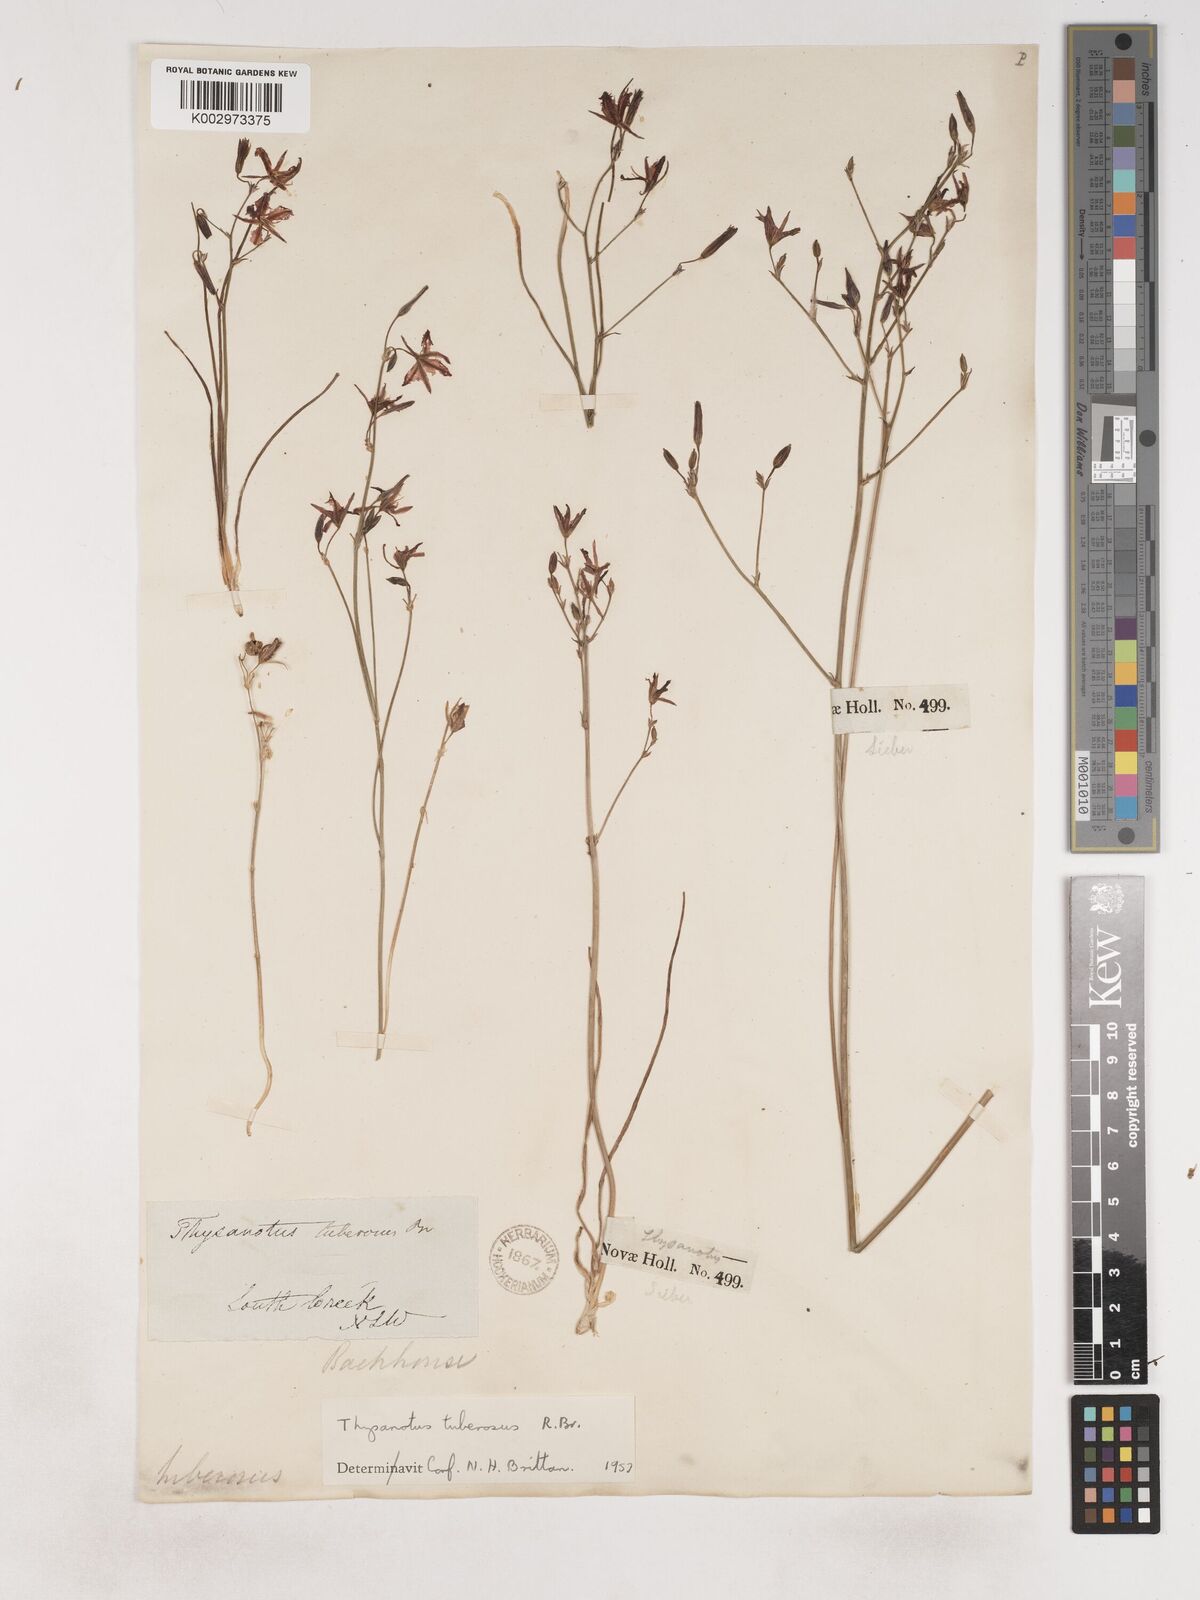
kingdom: Plantae
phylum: Tracheophyta
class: Liliopsida
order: Asparagales
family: Asparagaceae
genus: Thysanotus
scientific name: Thysanotus tuberosus
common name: Common fringed-lily
